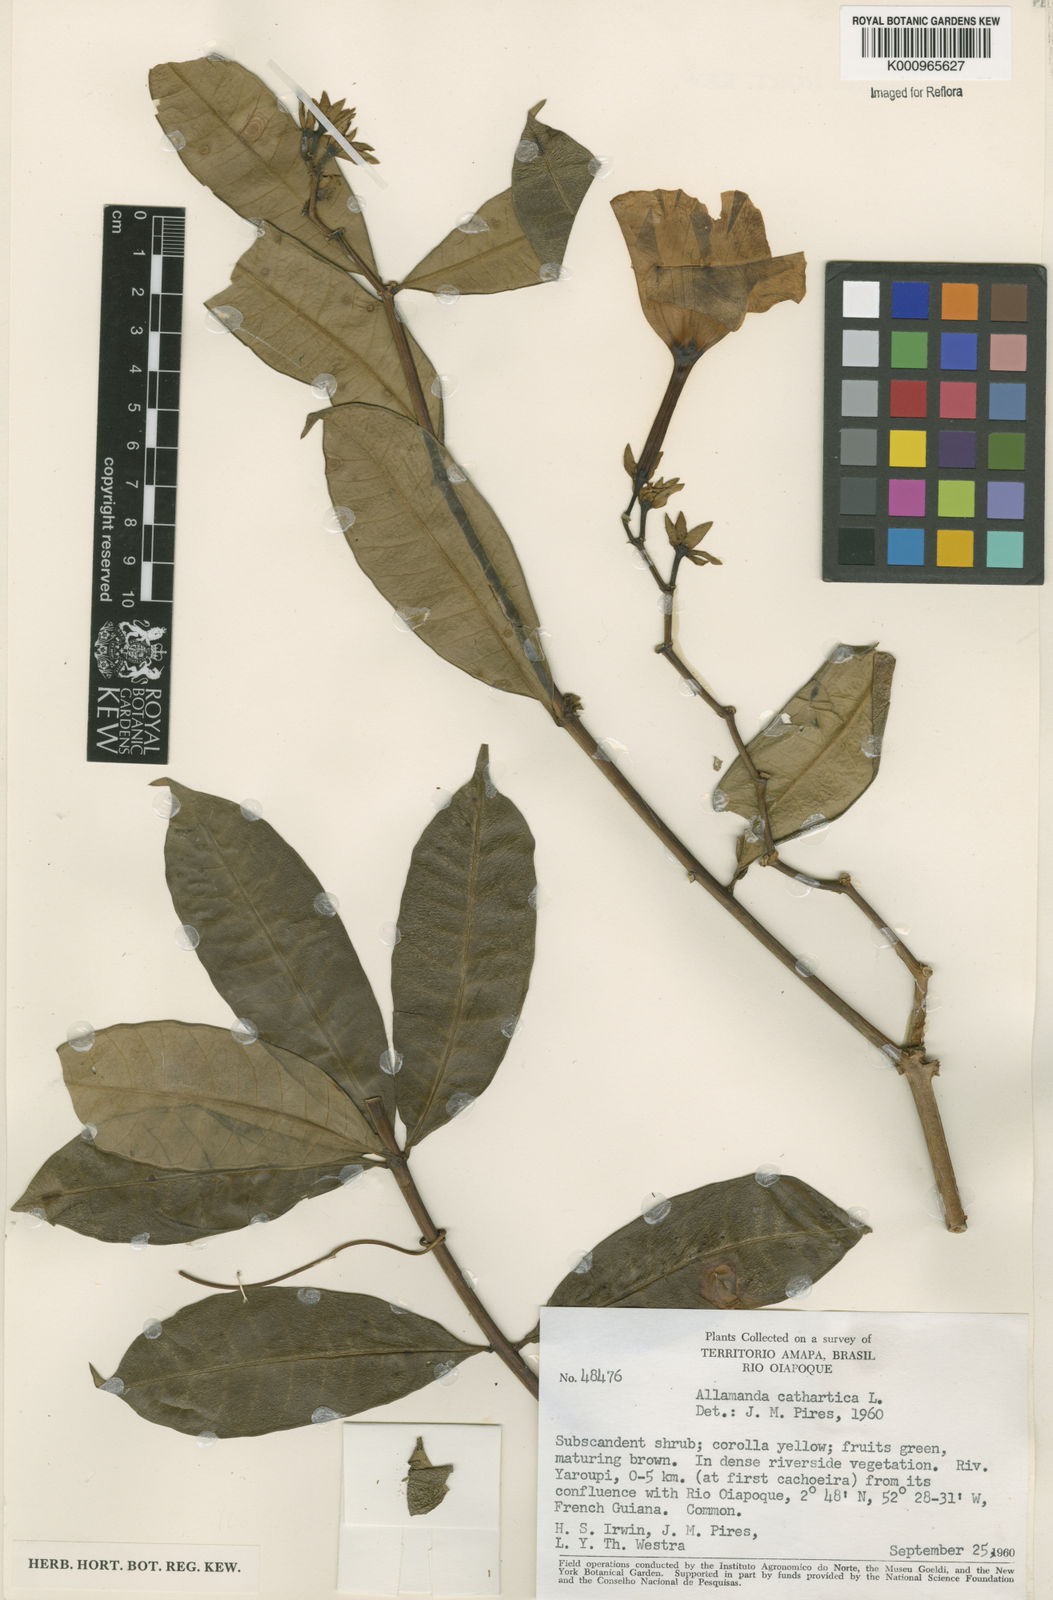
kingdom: Plantae
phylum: Tracheophyta
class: Magnoliopsida
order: Gentianales
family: Apocynaceae
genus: Allamanda
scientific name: Allamanda cathartica
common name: Golden trumpet
